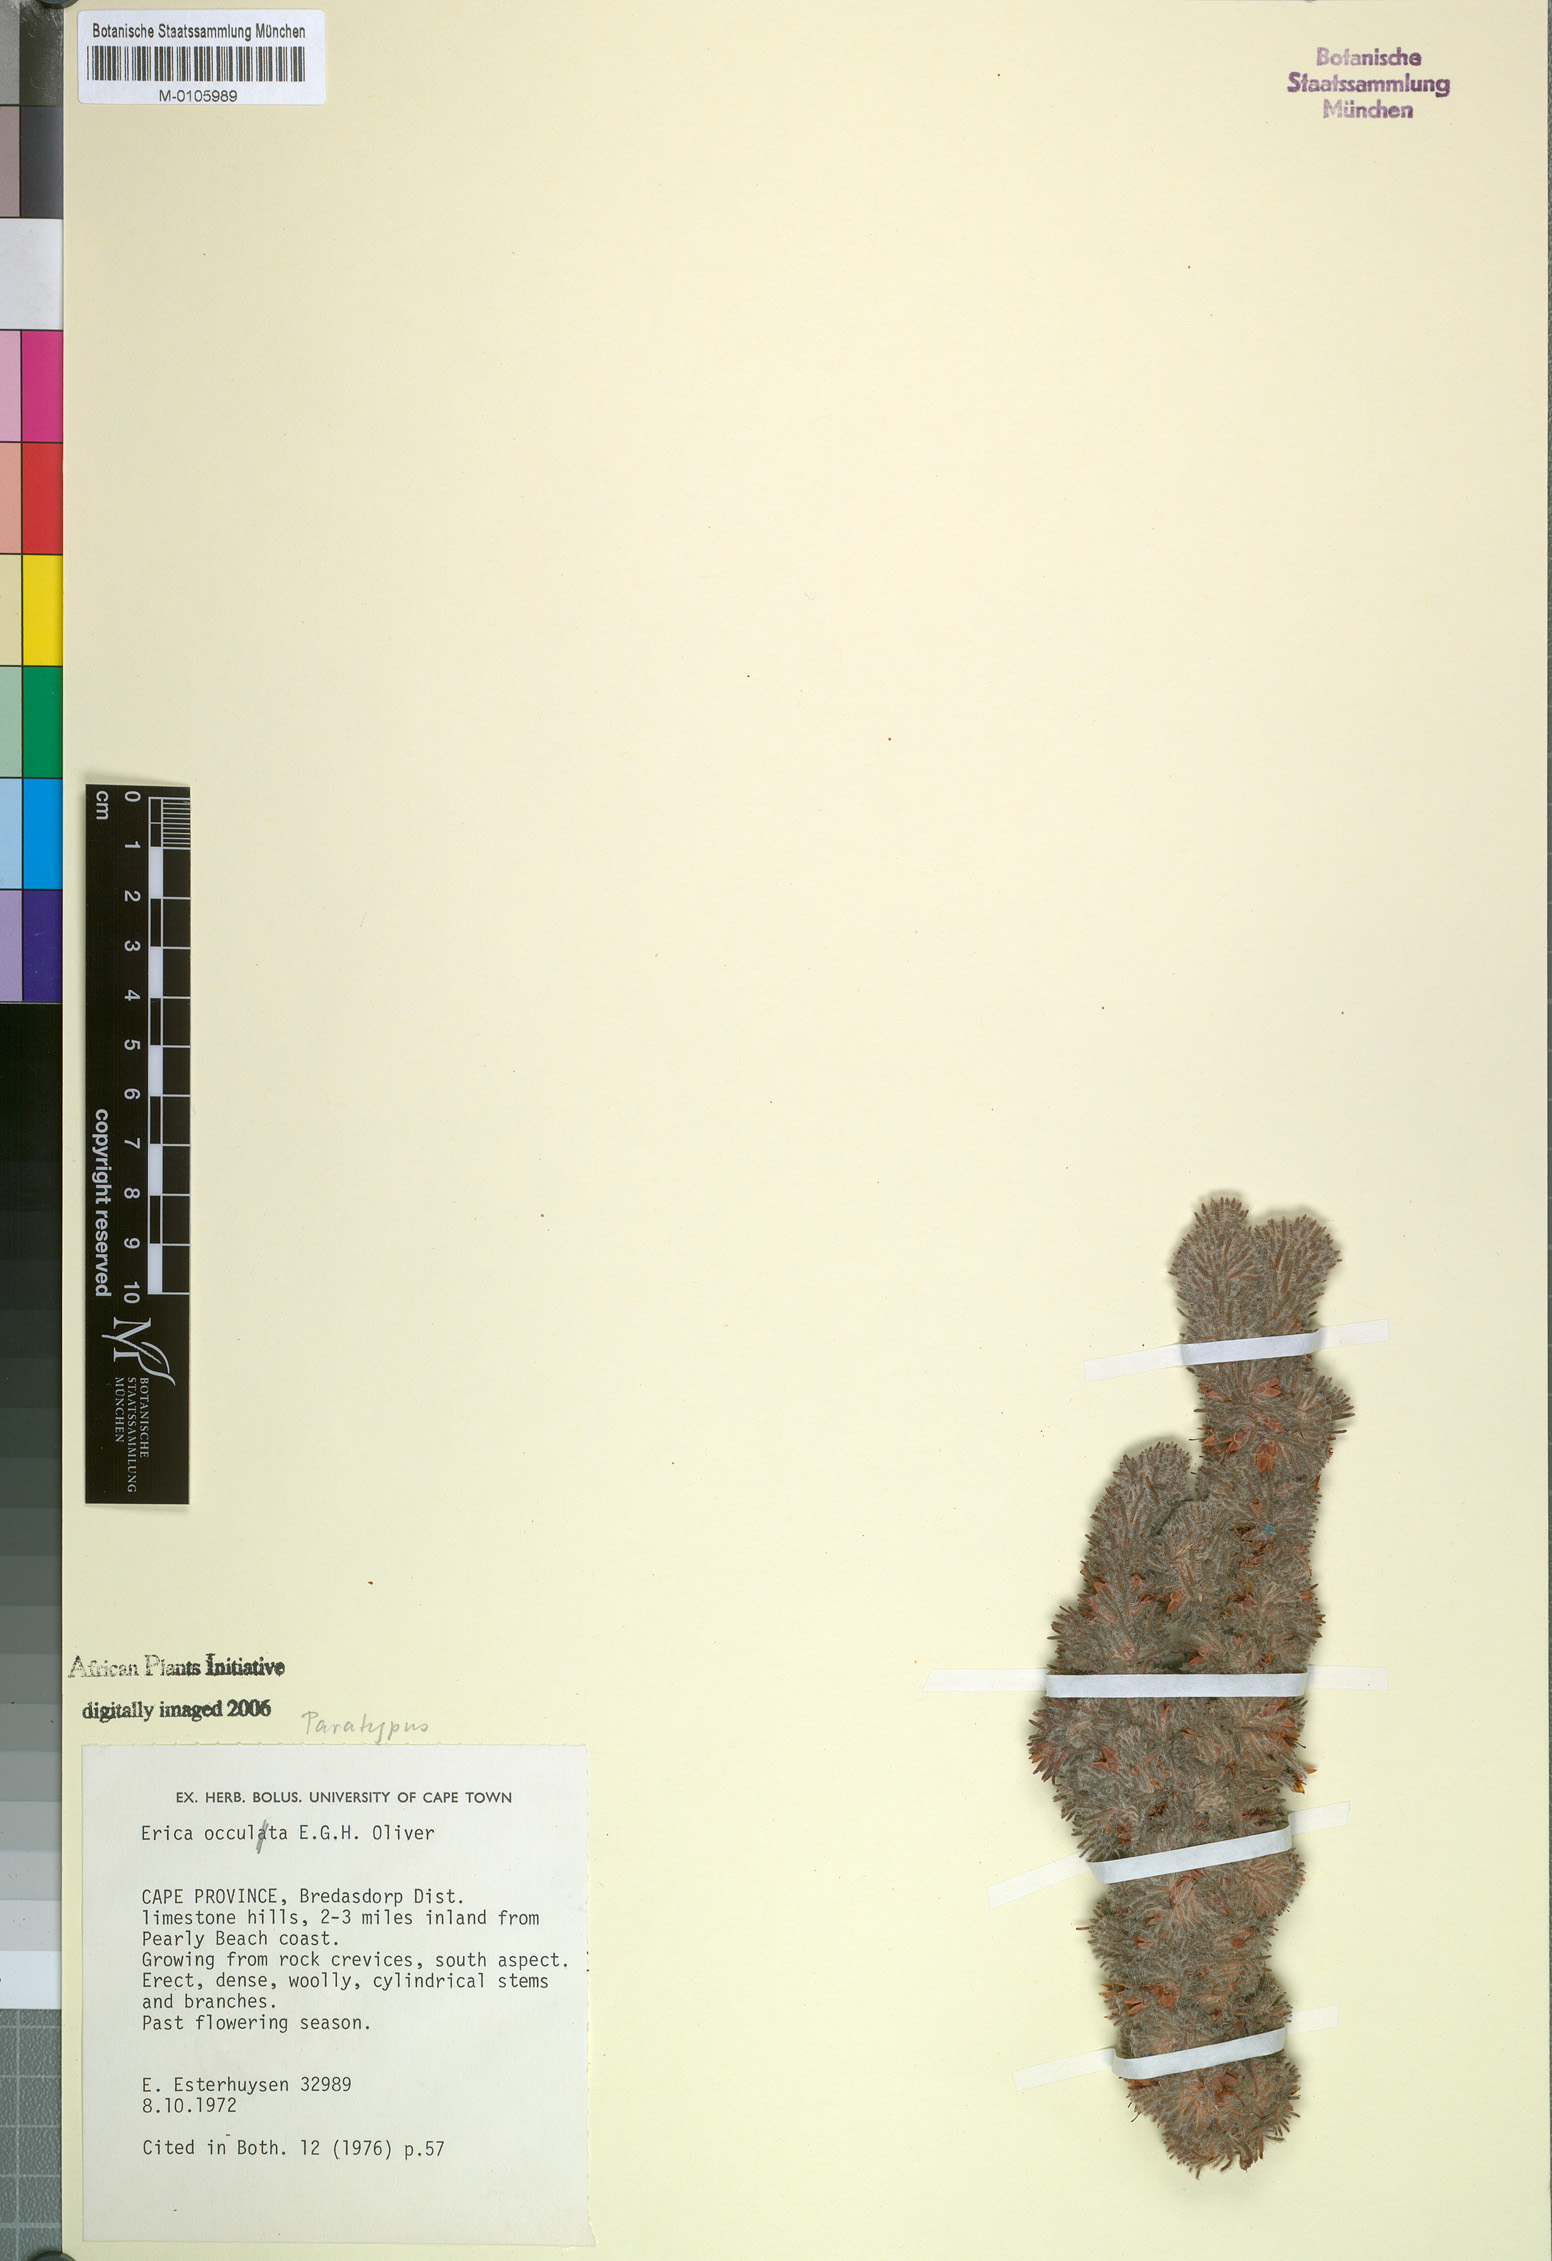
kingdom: Plantae
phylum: Tracheophyta
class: Magnoliopsida
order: Ericales
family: Ericaceae
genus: Erica
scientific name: Erica occulta
